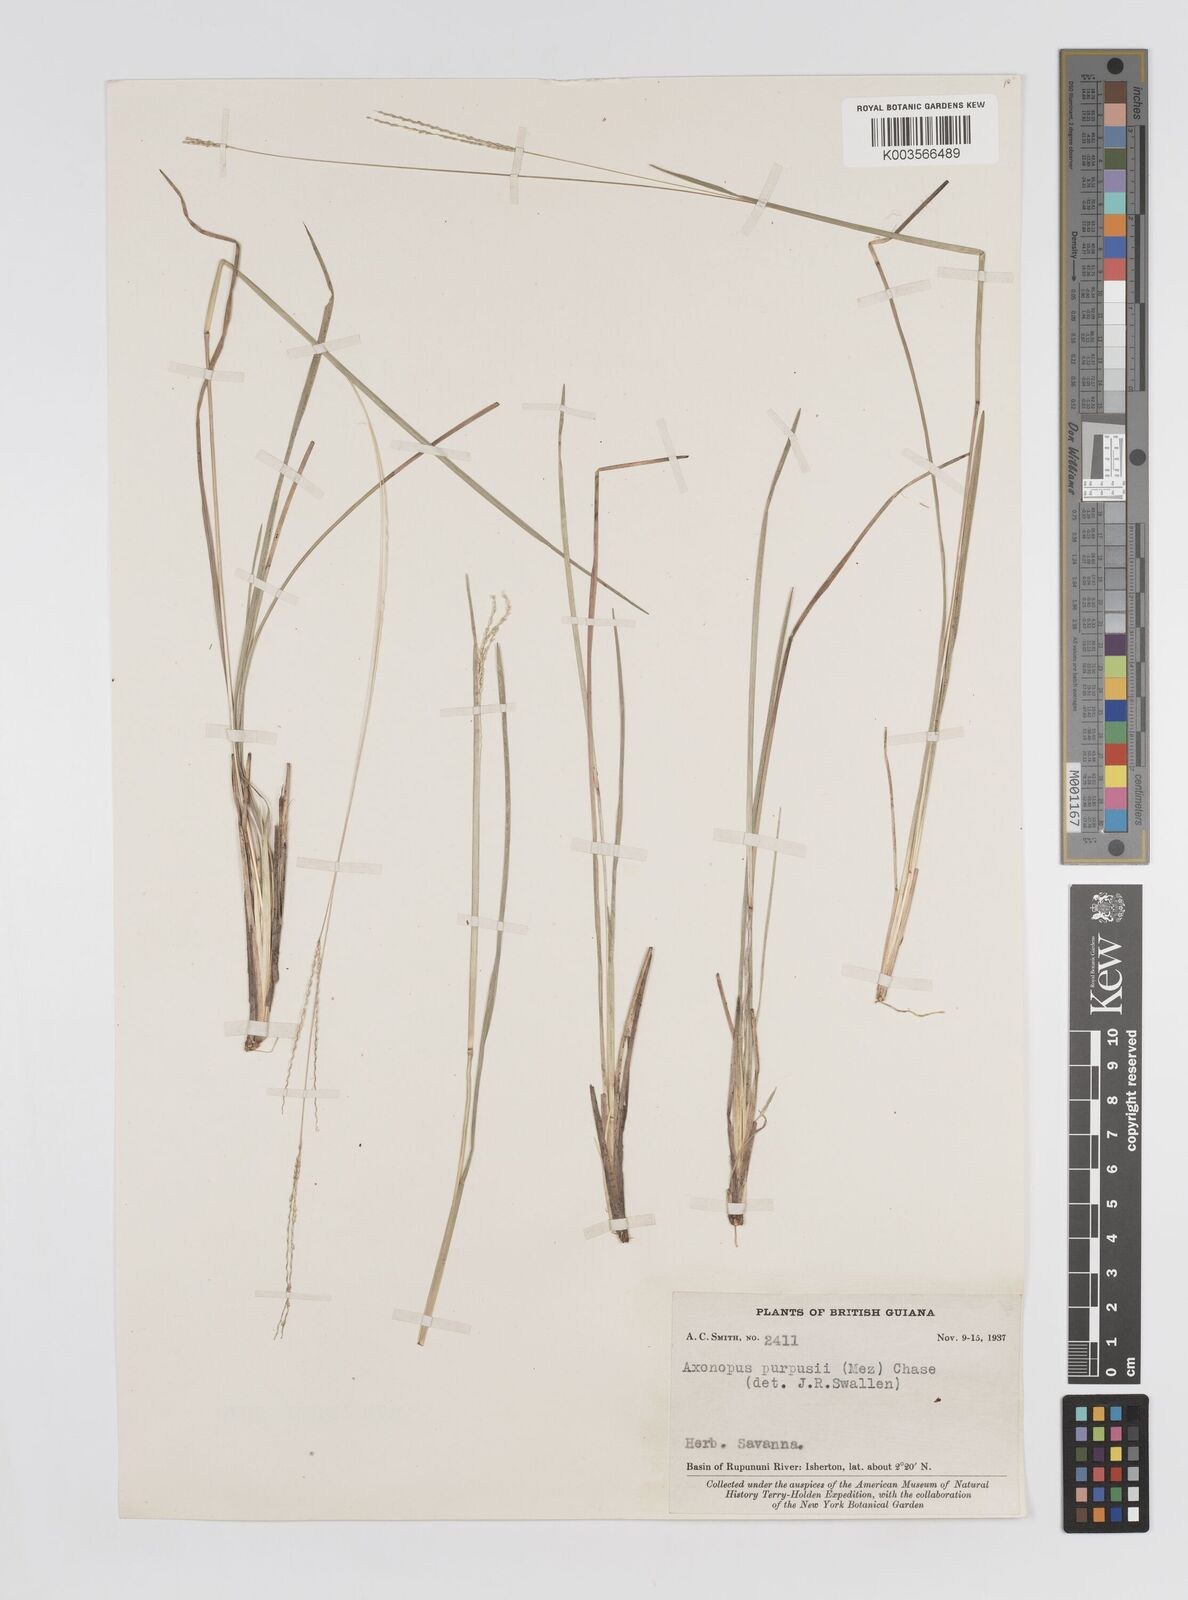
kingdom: Plantae
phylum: Tracheophyta
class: Liliopsida
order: Poales
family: Poaceae
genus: Axonopus
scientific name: Axonopus purpusii
